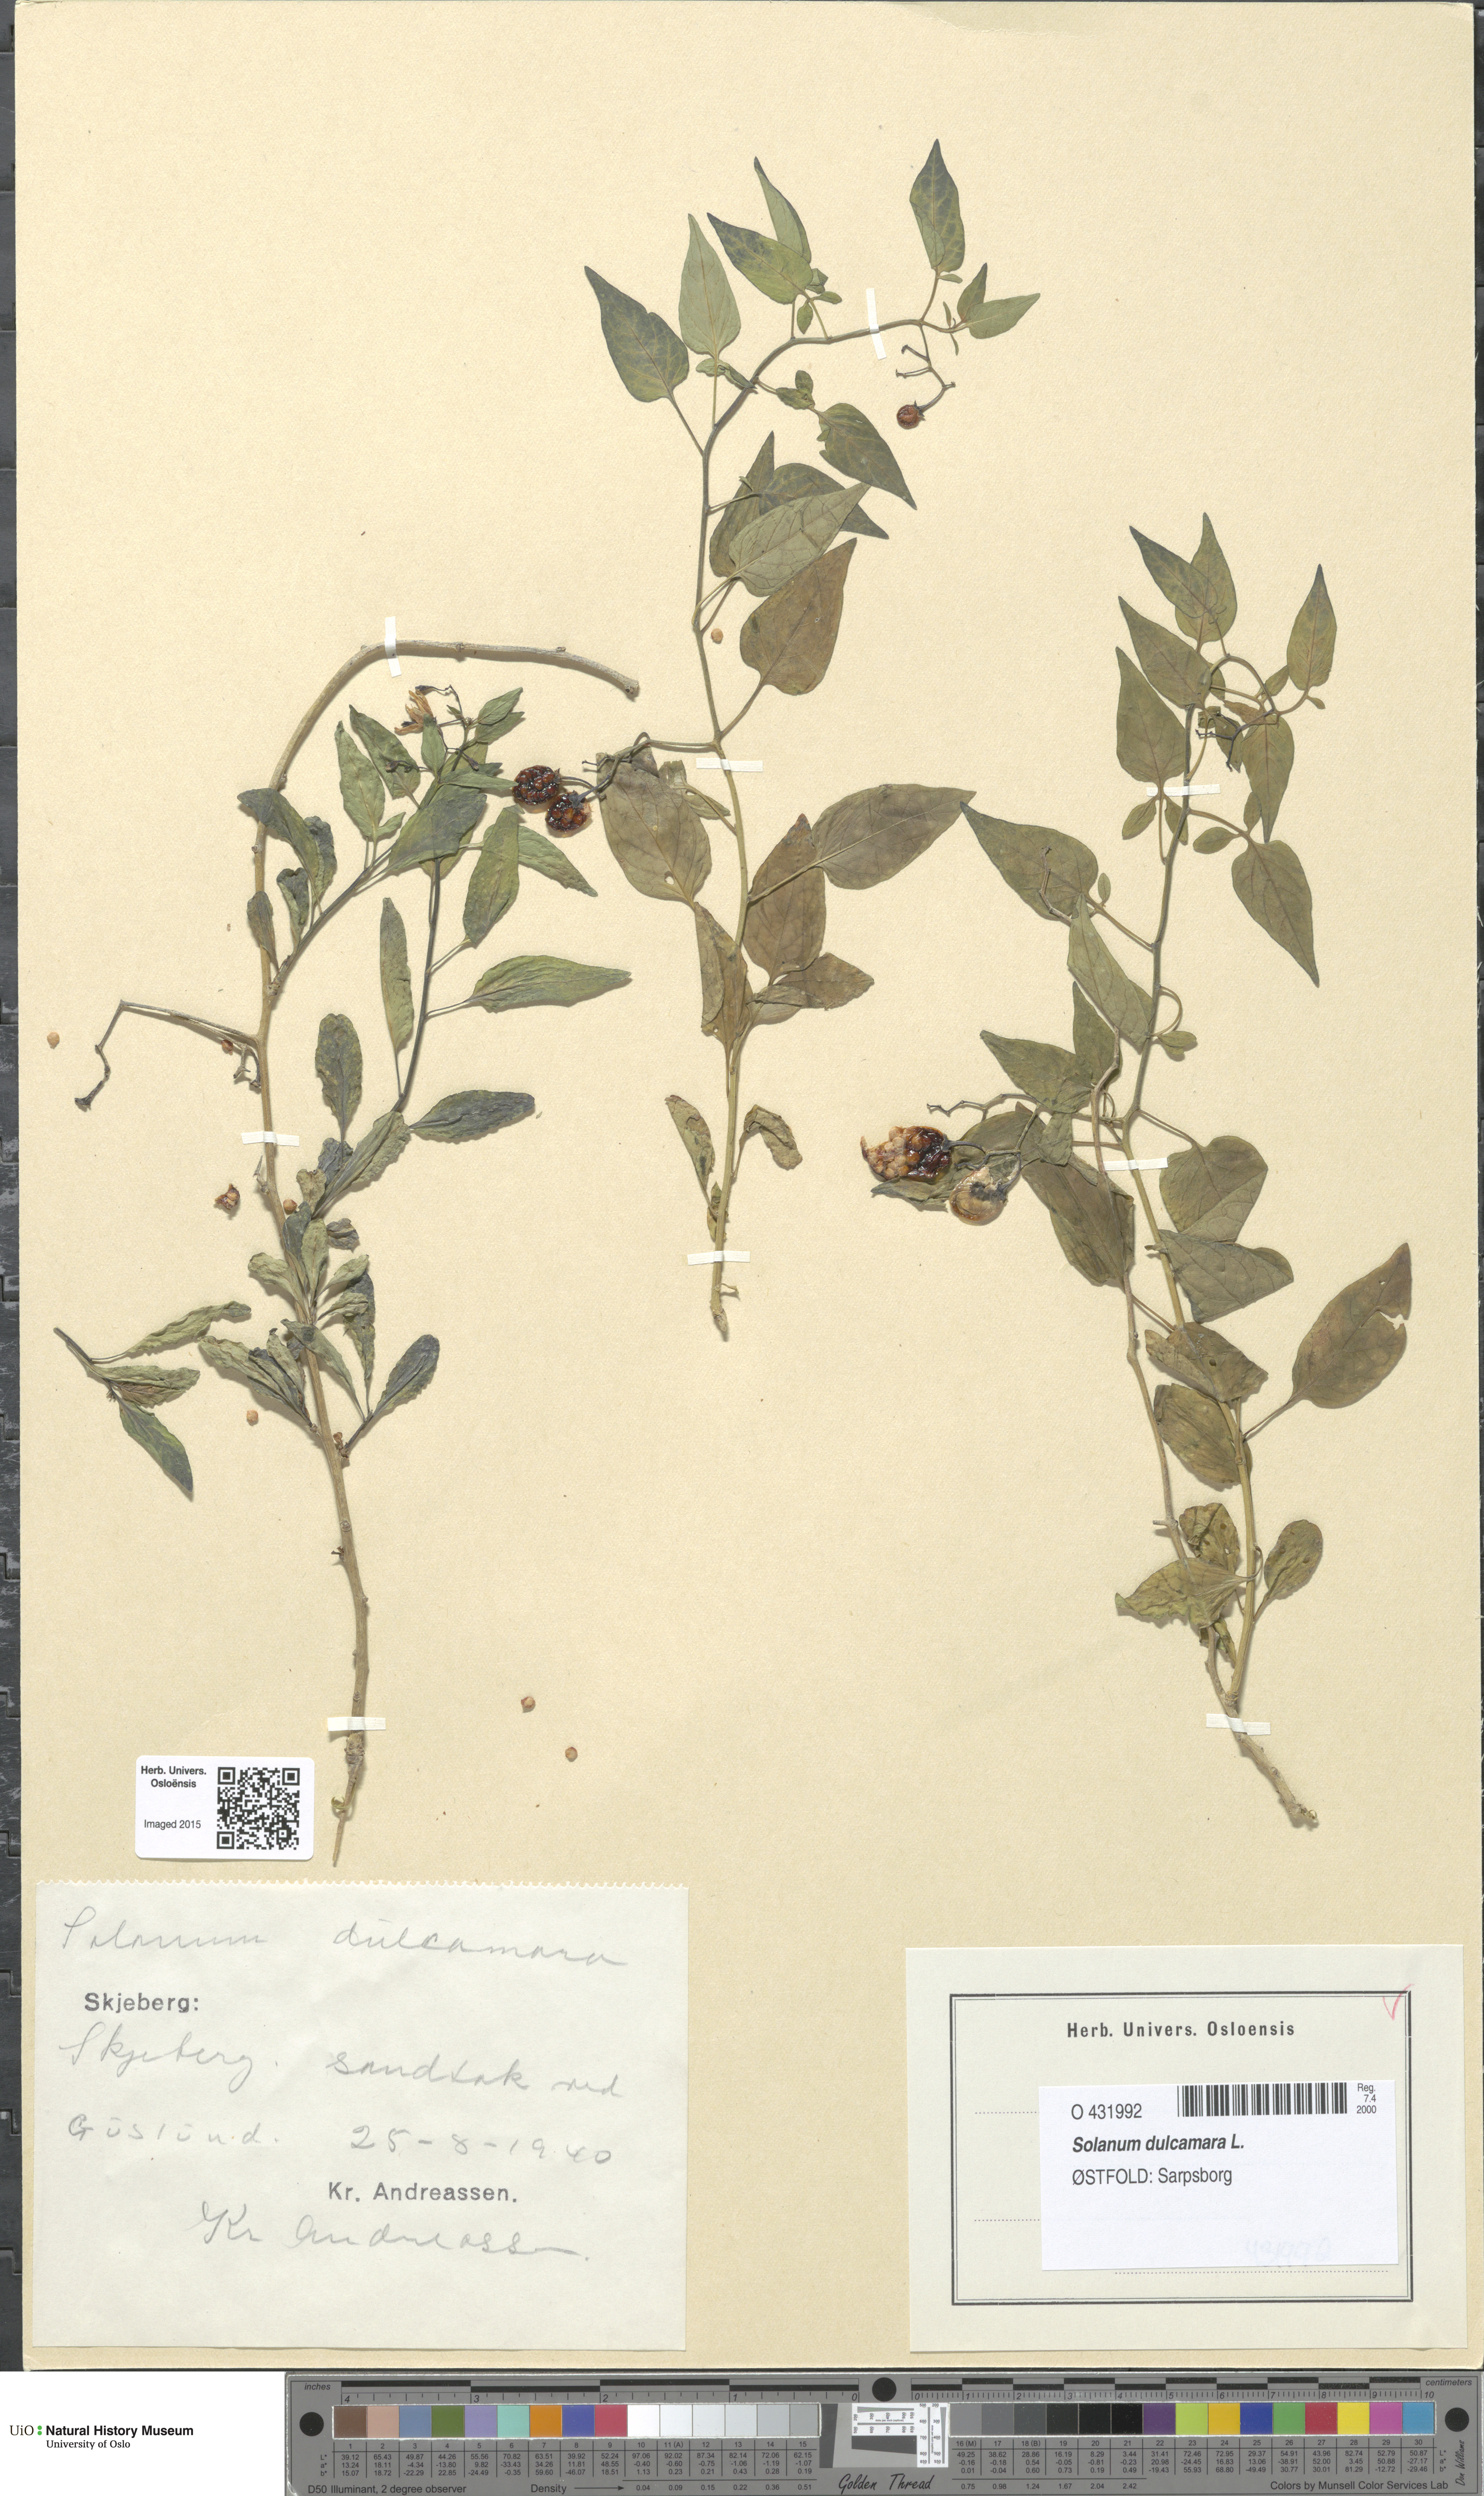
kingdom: Plantae
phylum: Tracheophyta
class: Magnoliopsida
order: Solanales
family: Solanaceae
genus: Solanum
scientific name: Solanum dulcamara
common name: Climbing nightshade
